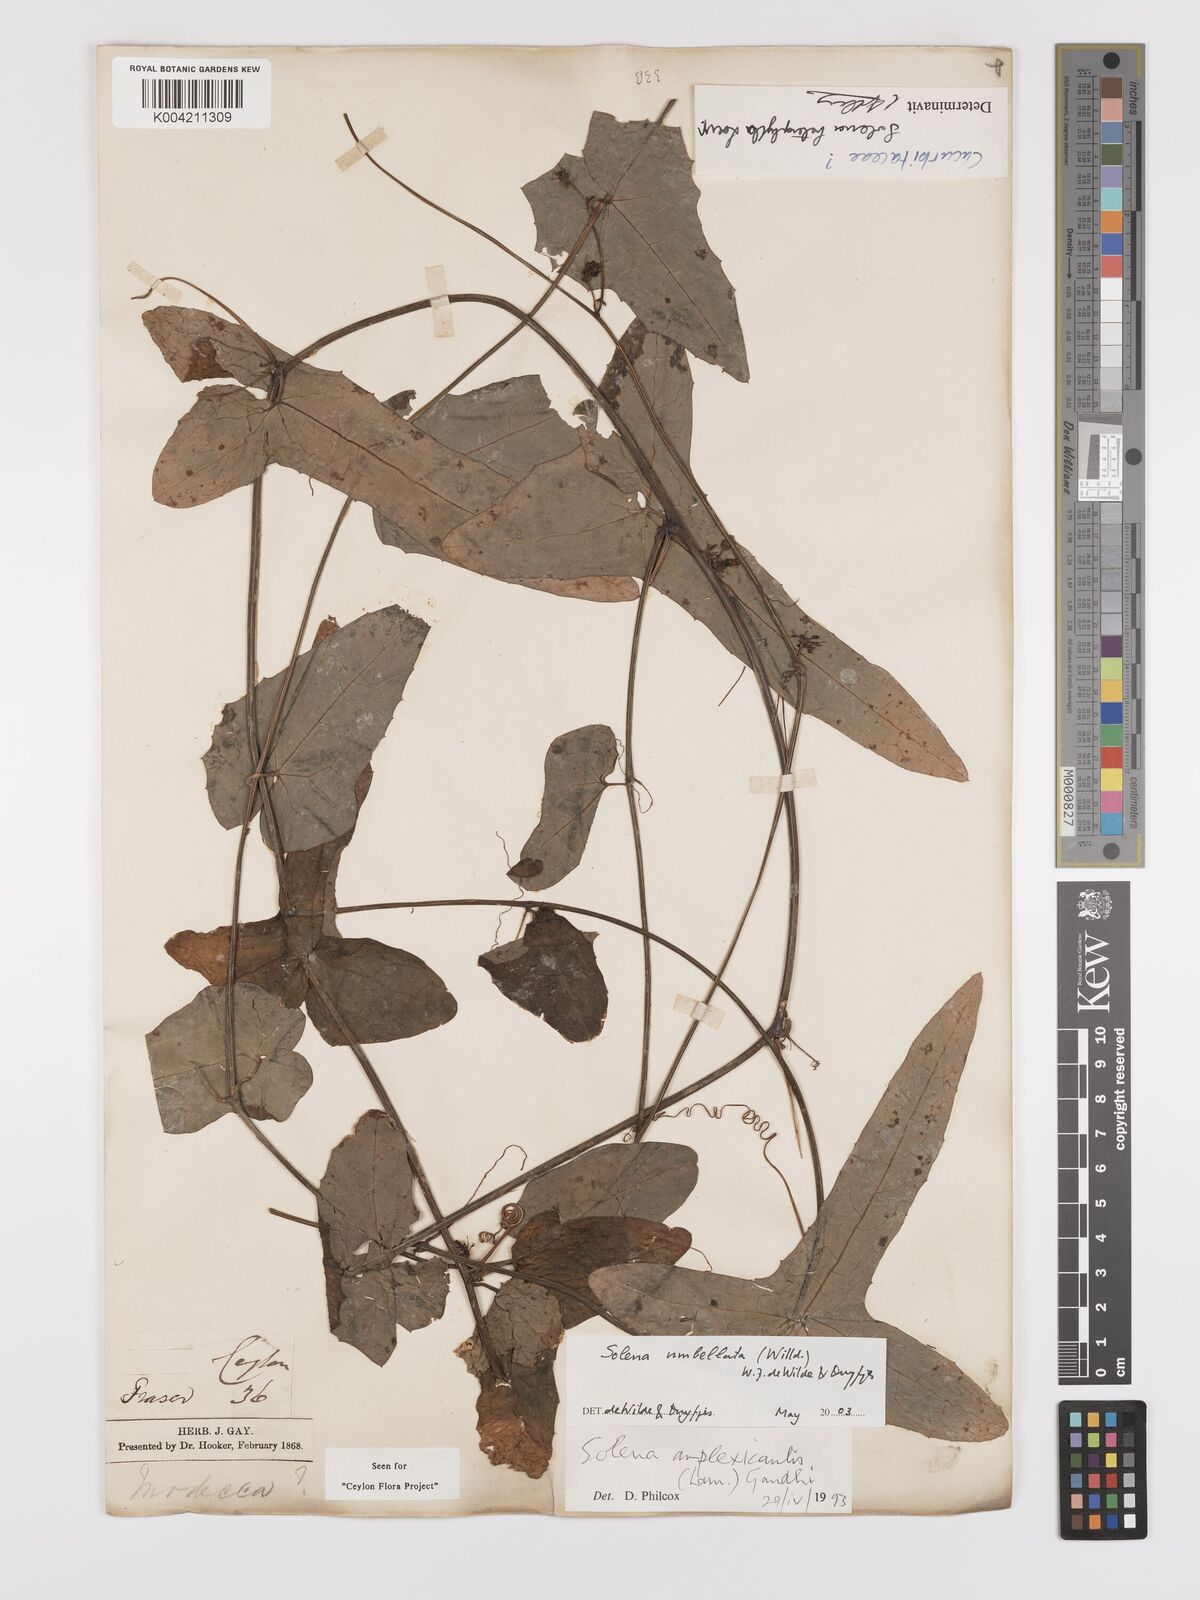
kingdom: Plantae
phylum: Tracheophyta
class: Magnoliopsida
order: Cucurbitales
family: Cucurbitaceae
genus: Solena
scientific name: Solena umbellata
